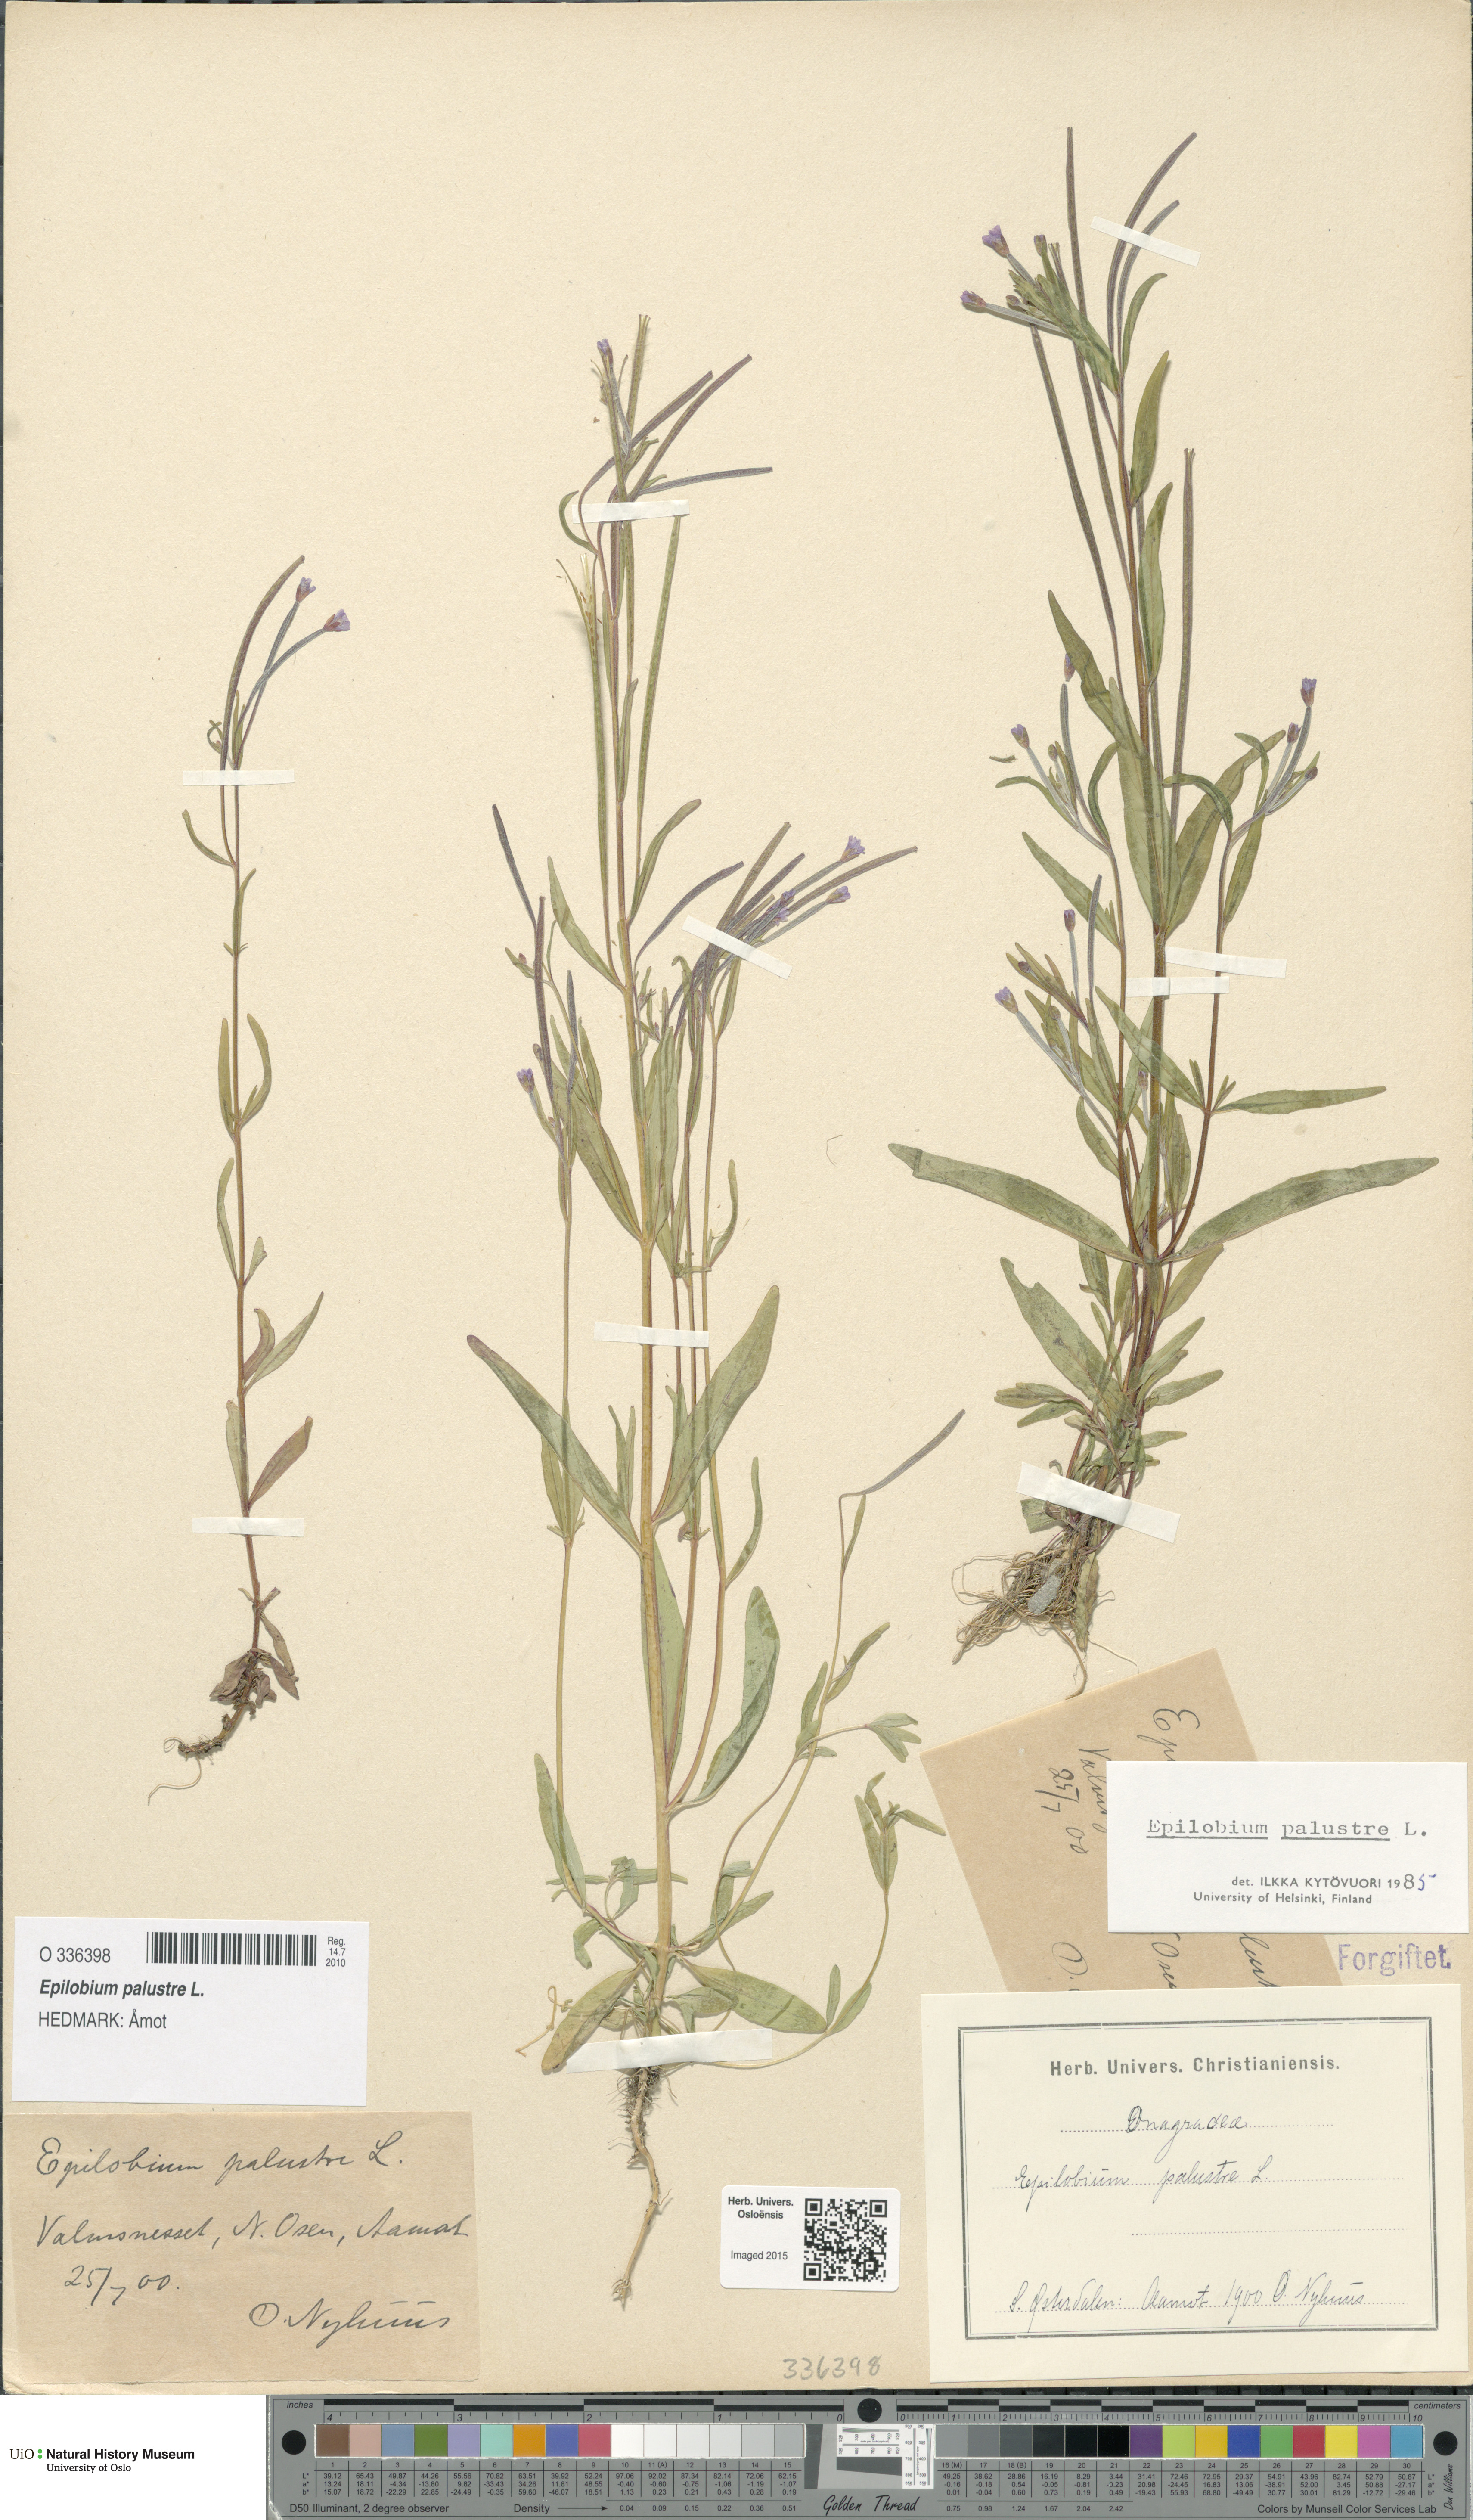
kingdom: Plantae
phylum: Tracheophyta
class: Magnoliopsida
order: Myrtales
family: Onagraceae
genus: Epilobium
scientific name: Epilobium palustre
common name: Marsh willowherb
